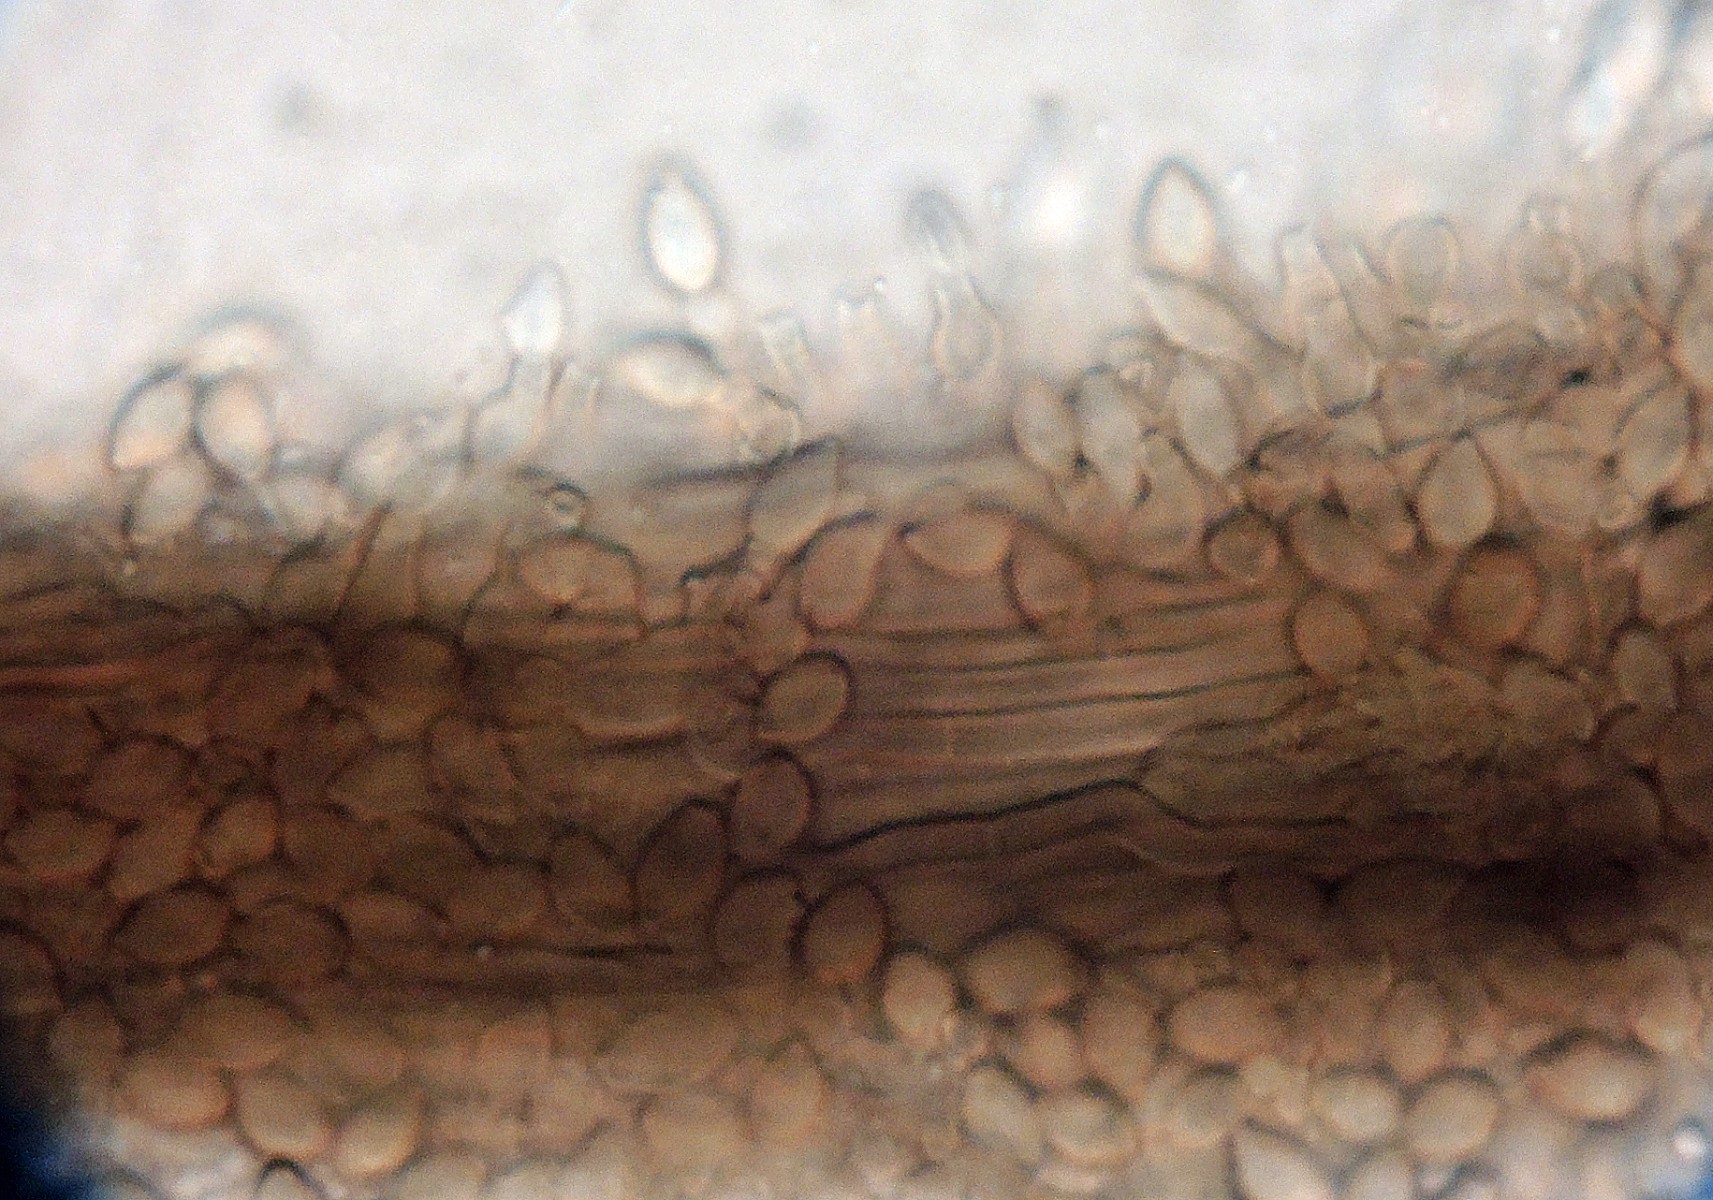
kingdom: Fungi
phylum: Ascomycota
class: Sordariomycetes
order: Microascales
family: Microascaceae
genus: Cephalotrichum
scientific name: Cephalotrichum stemonitis
